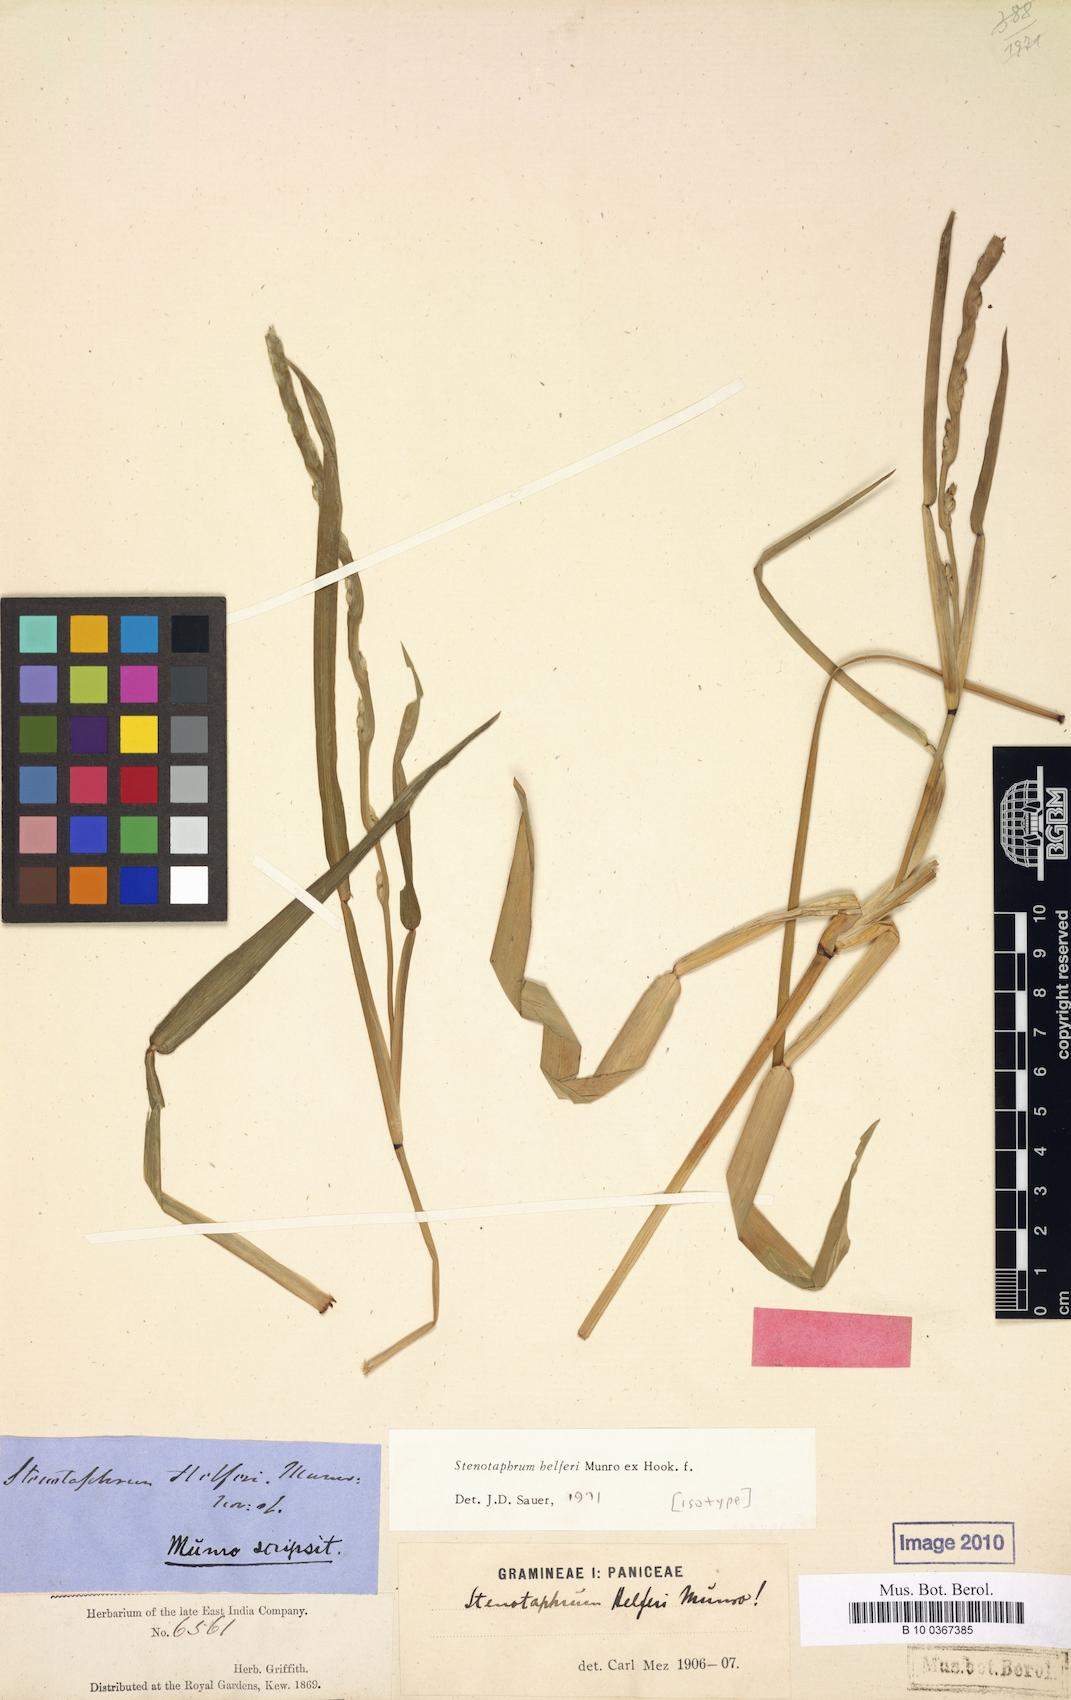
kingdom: Plantae
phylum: Tracheophyta
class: Liliopsida
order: Poales
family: Poaceae
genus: Stenotaphrum
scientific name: Stenotaphrum helferi
